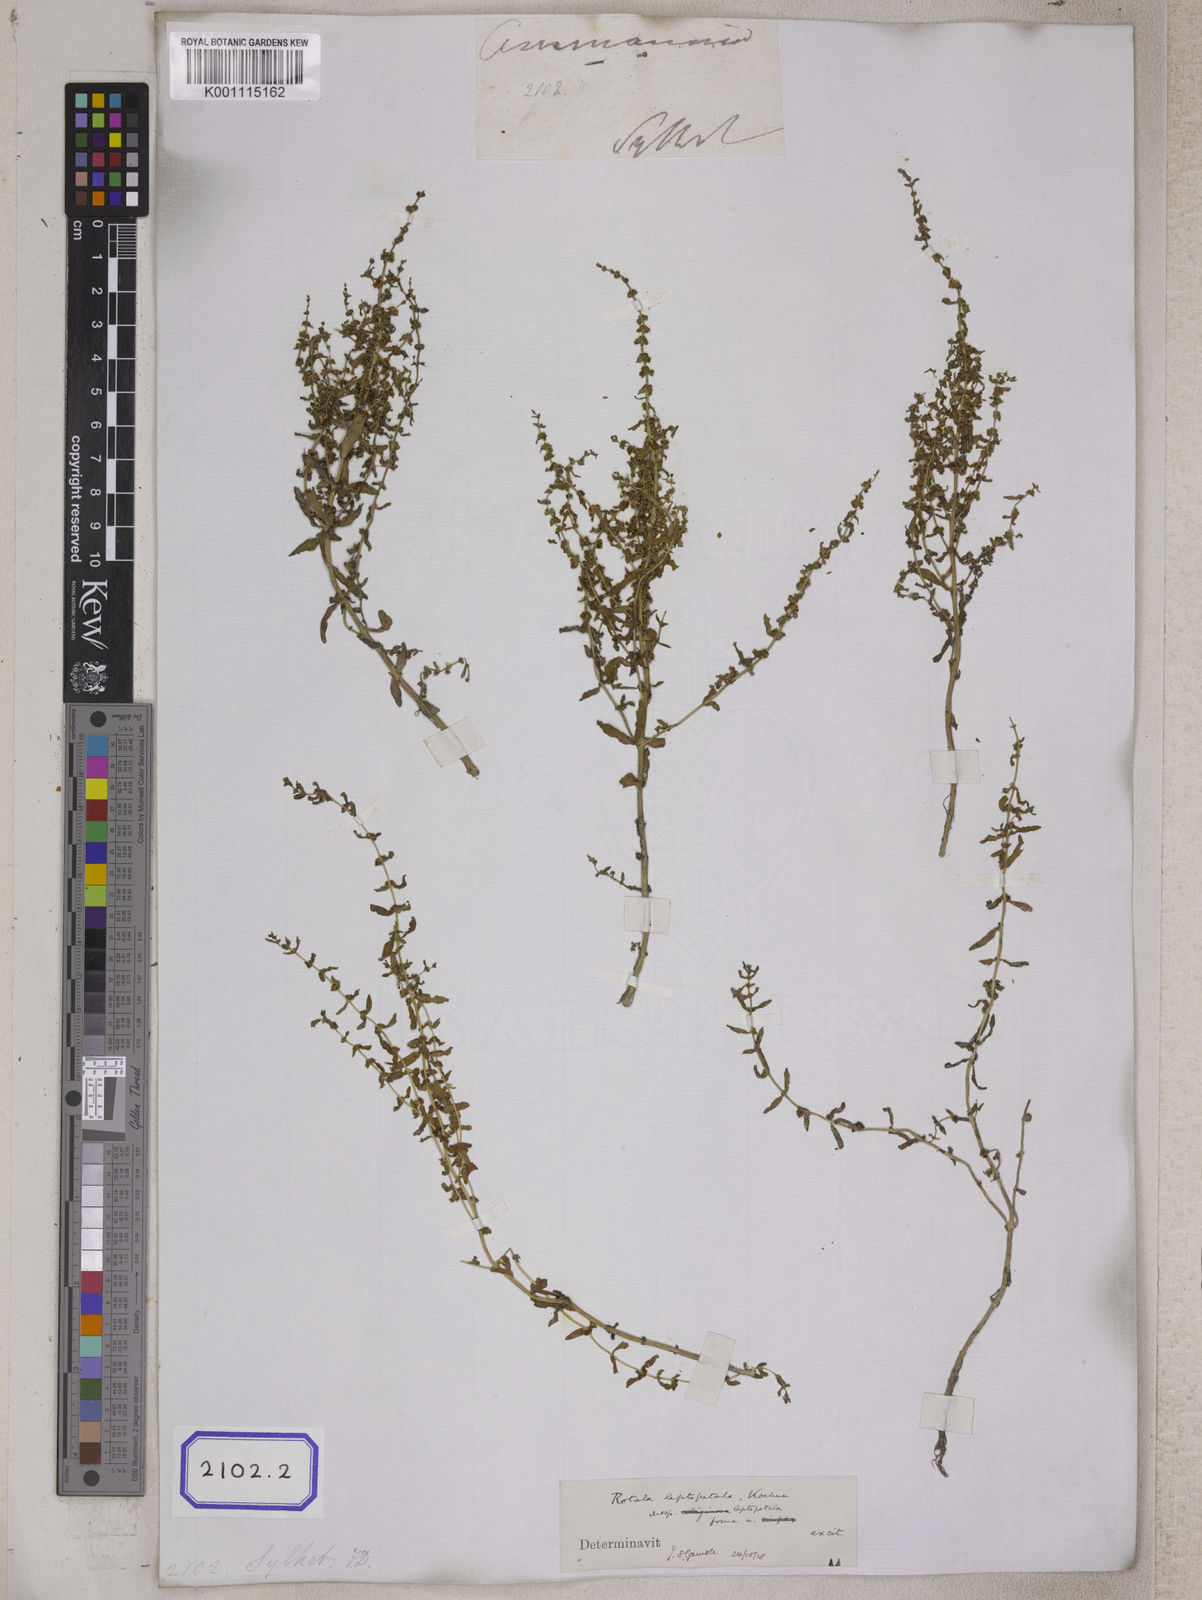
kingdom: Plantae
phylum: Tracheophyta
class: Magnoliopsida
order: Myrtales
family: Lythraceae
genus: Rotala
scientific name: Rotala rosea
